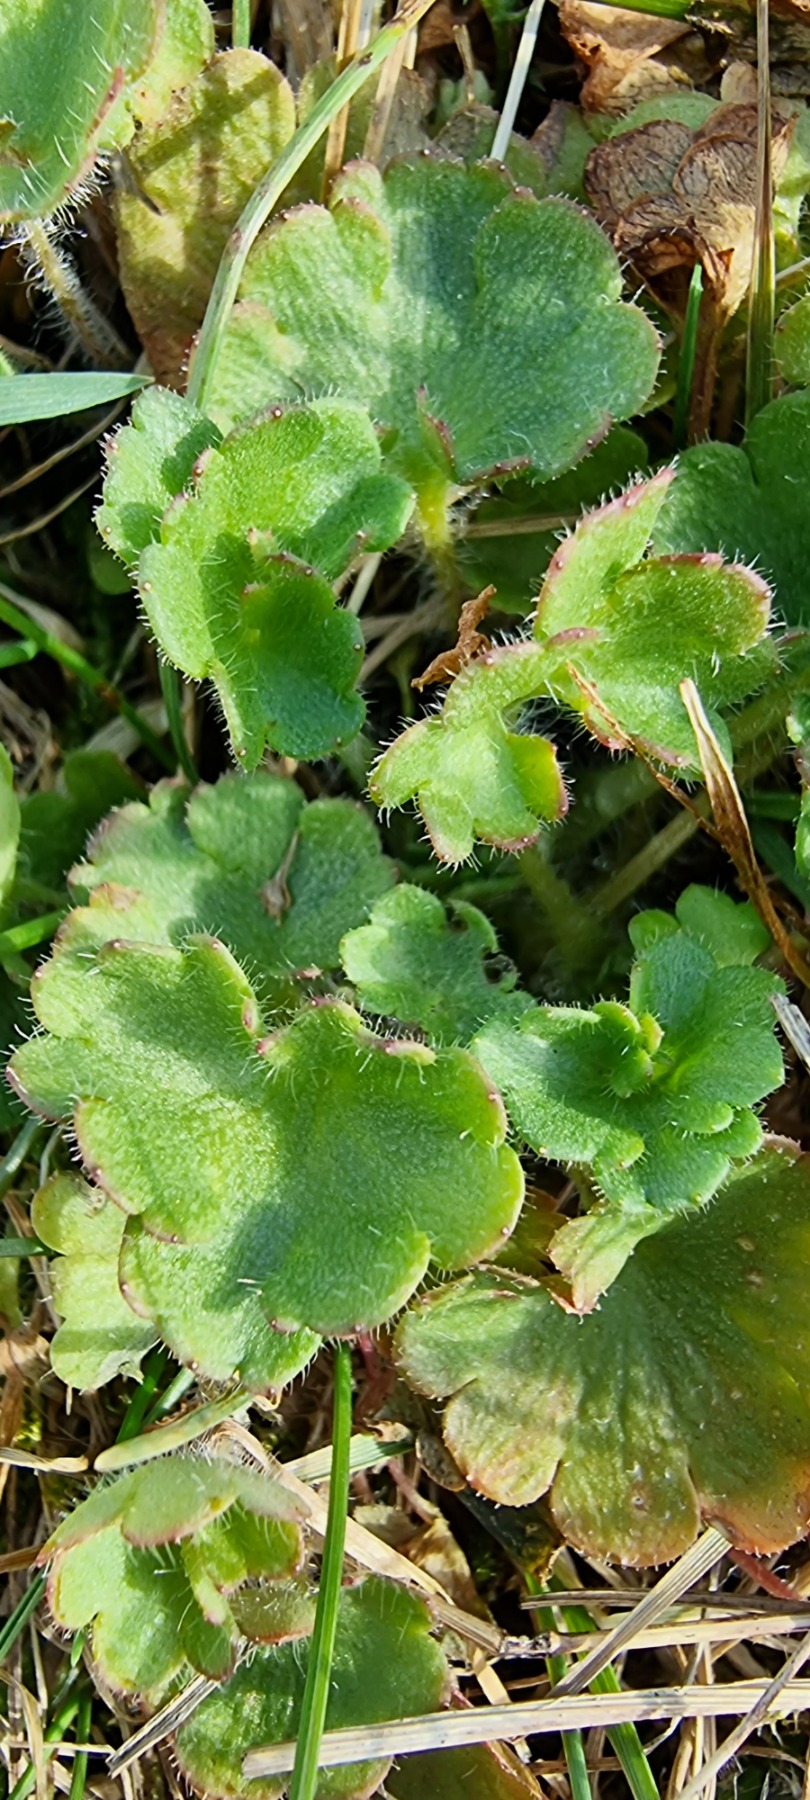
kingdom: Plantae
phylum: Tracheophyta
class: Magnoliopsida
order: Saxifragales
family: Saxifragaceae
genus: Saxifraga
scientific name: Saxifraga granulata
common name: Kornet stenbræk
